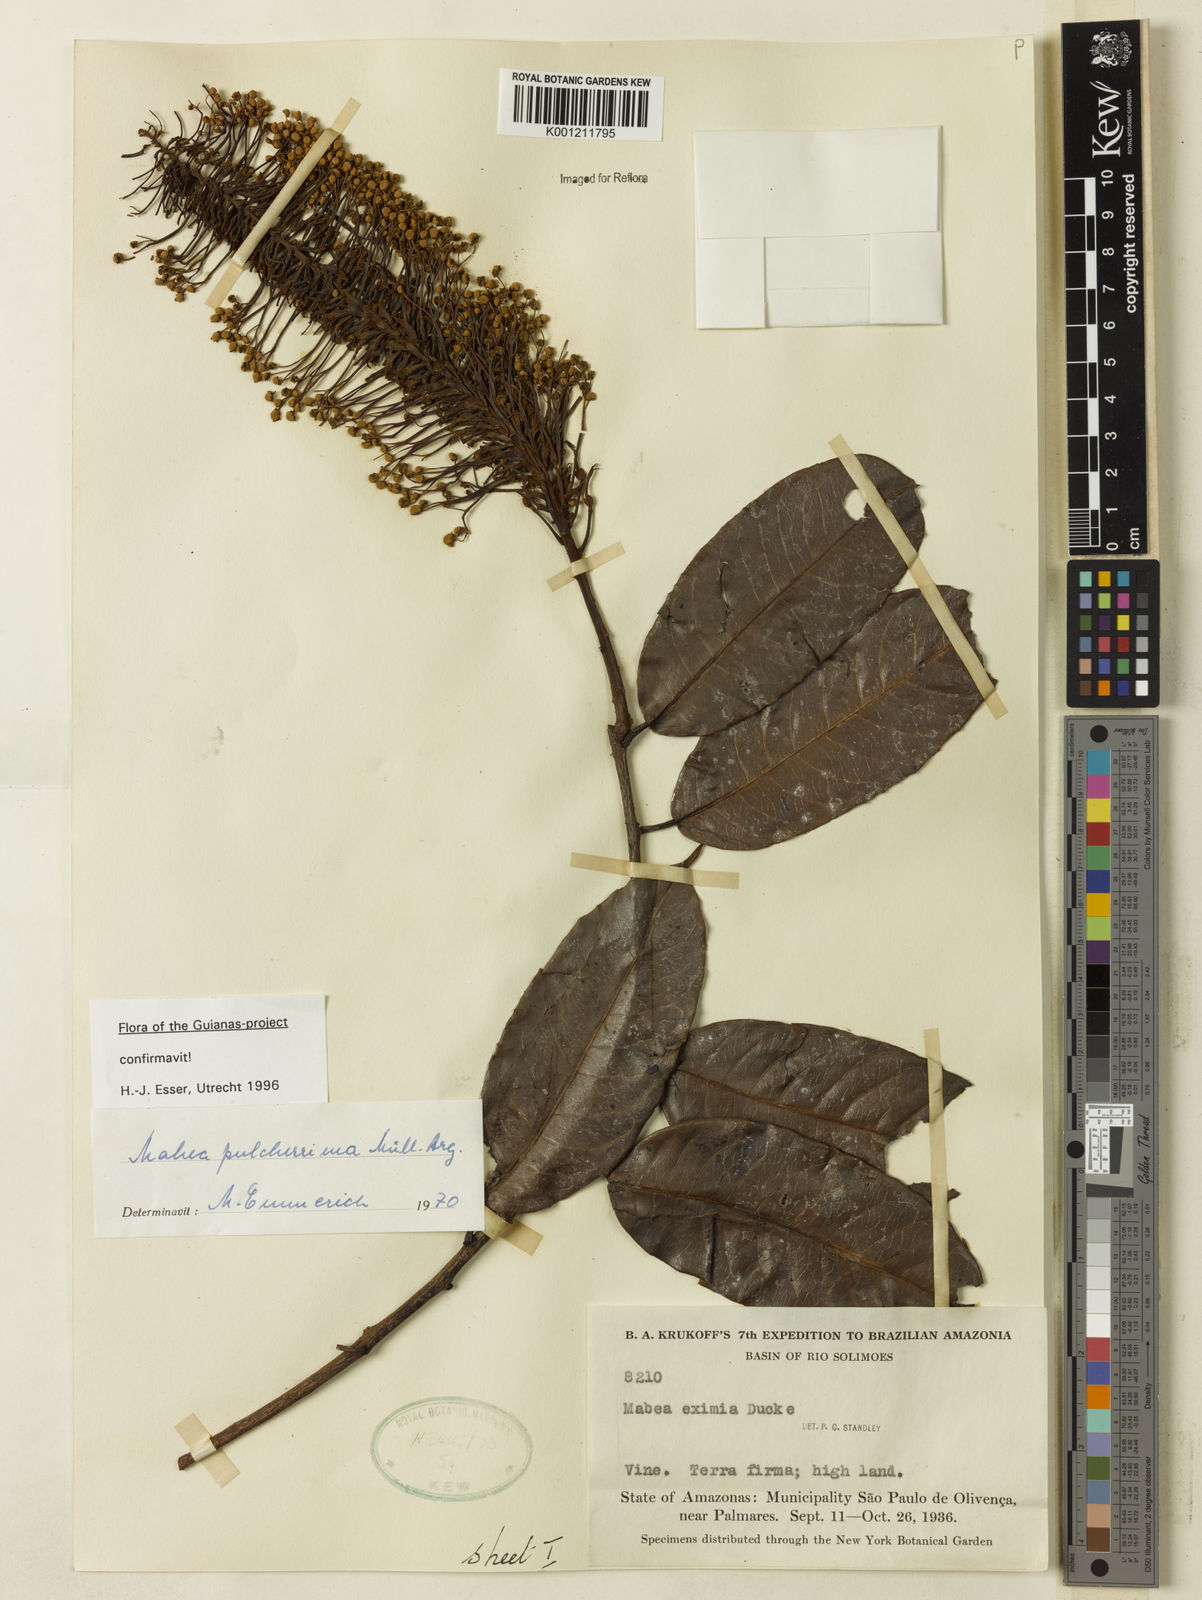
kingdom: Plantae
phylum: Tracheophyta
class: Magnoliopsida
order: Malpighiales
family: Euphorbiaceae
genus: Mabea
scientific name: Mabea
